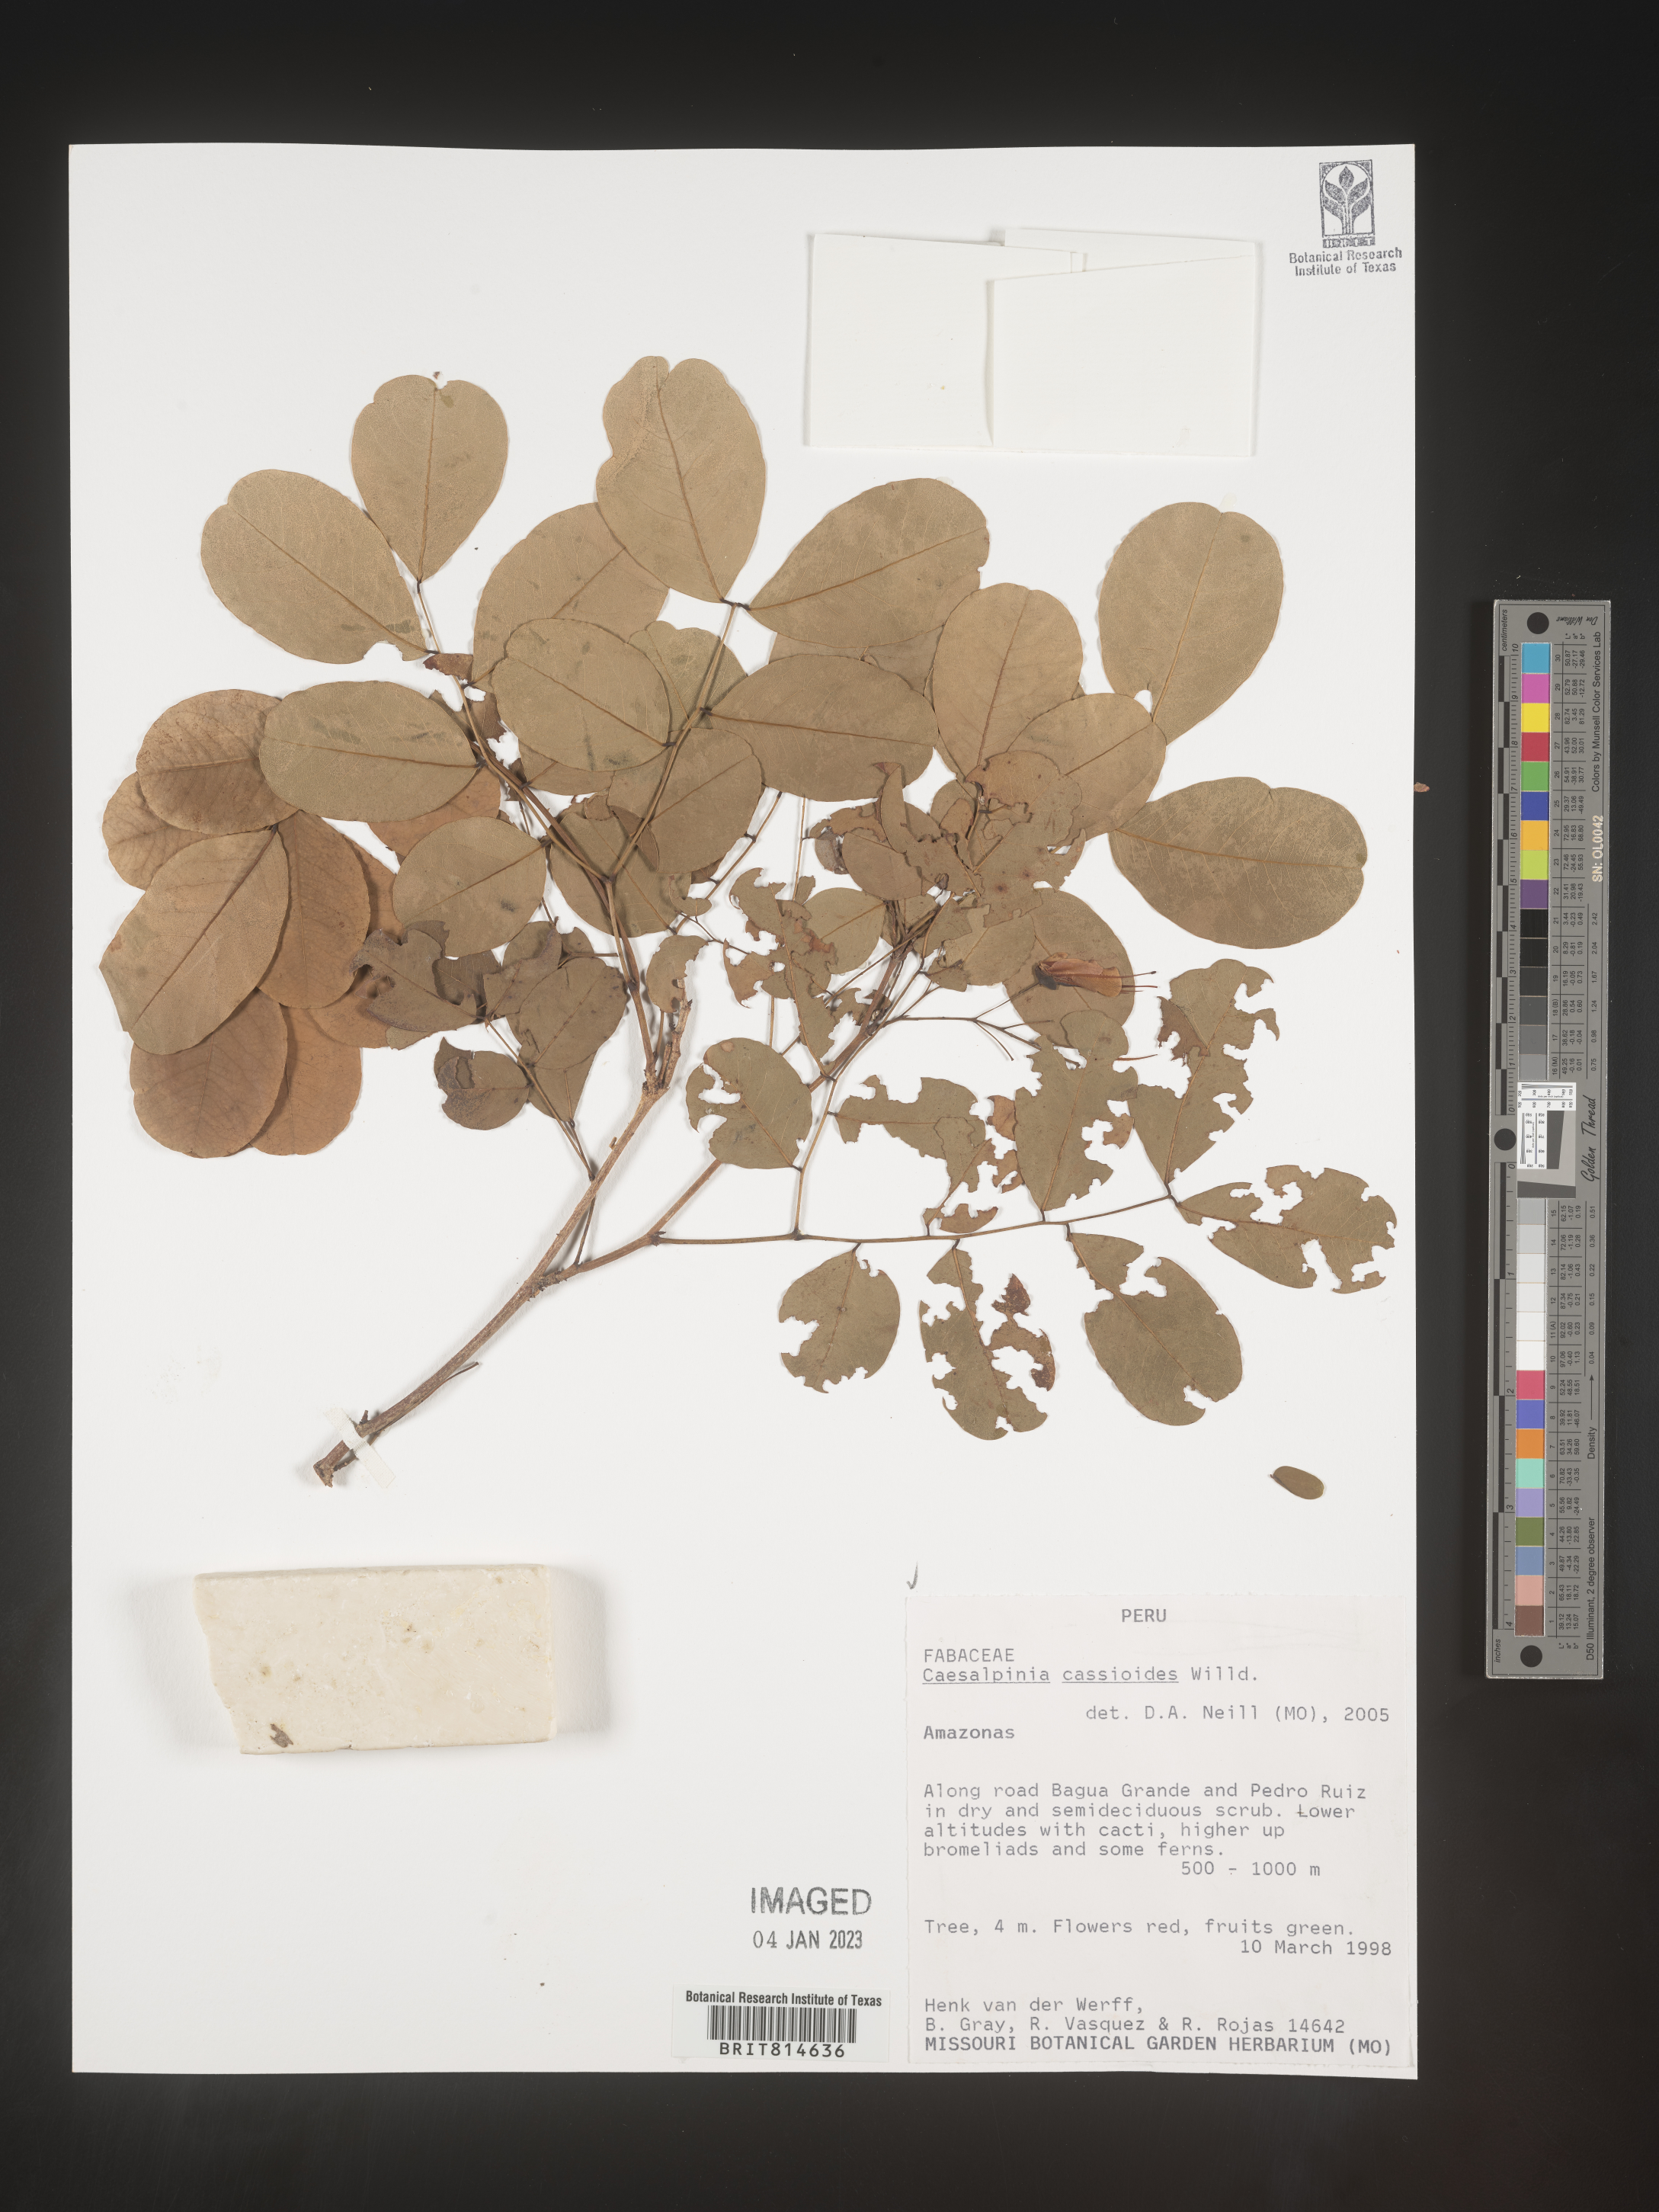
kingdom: Plantae
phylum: Tracheophyta
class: Magnoliopsida
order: Fabales
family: Fabaceae
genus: Caesalpinia
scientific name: Caesalpinia
